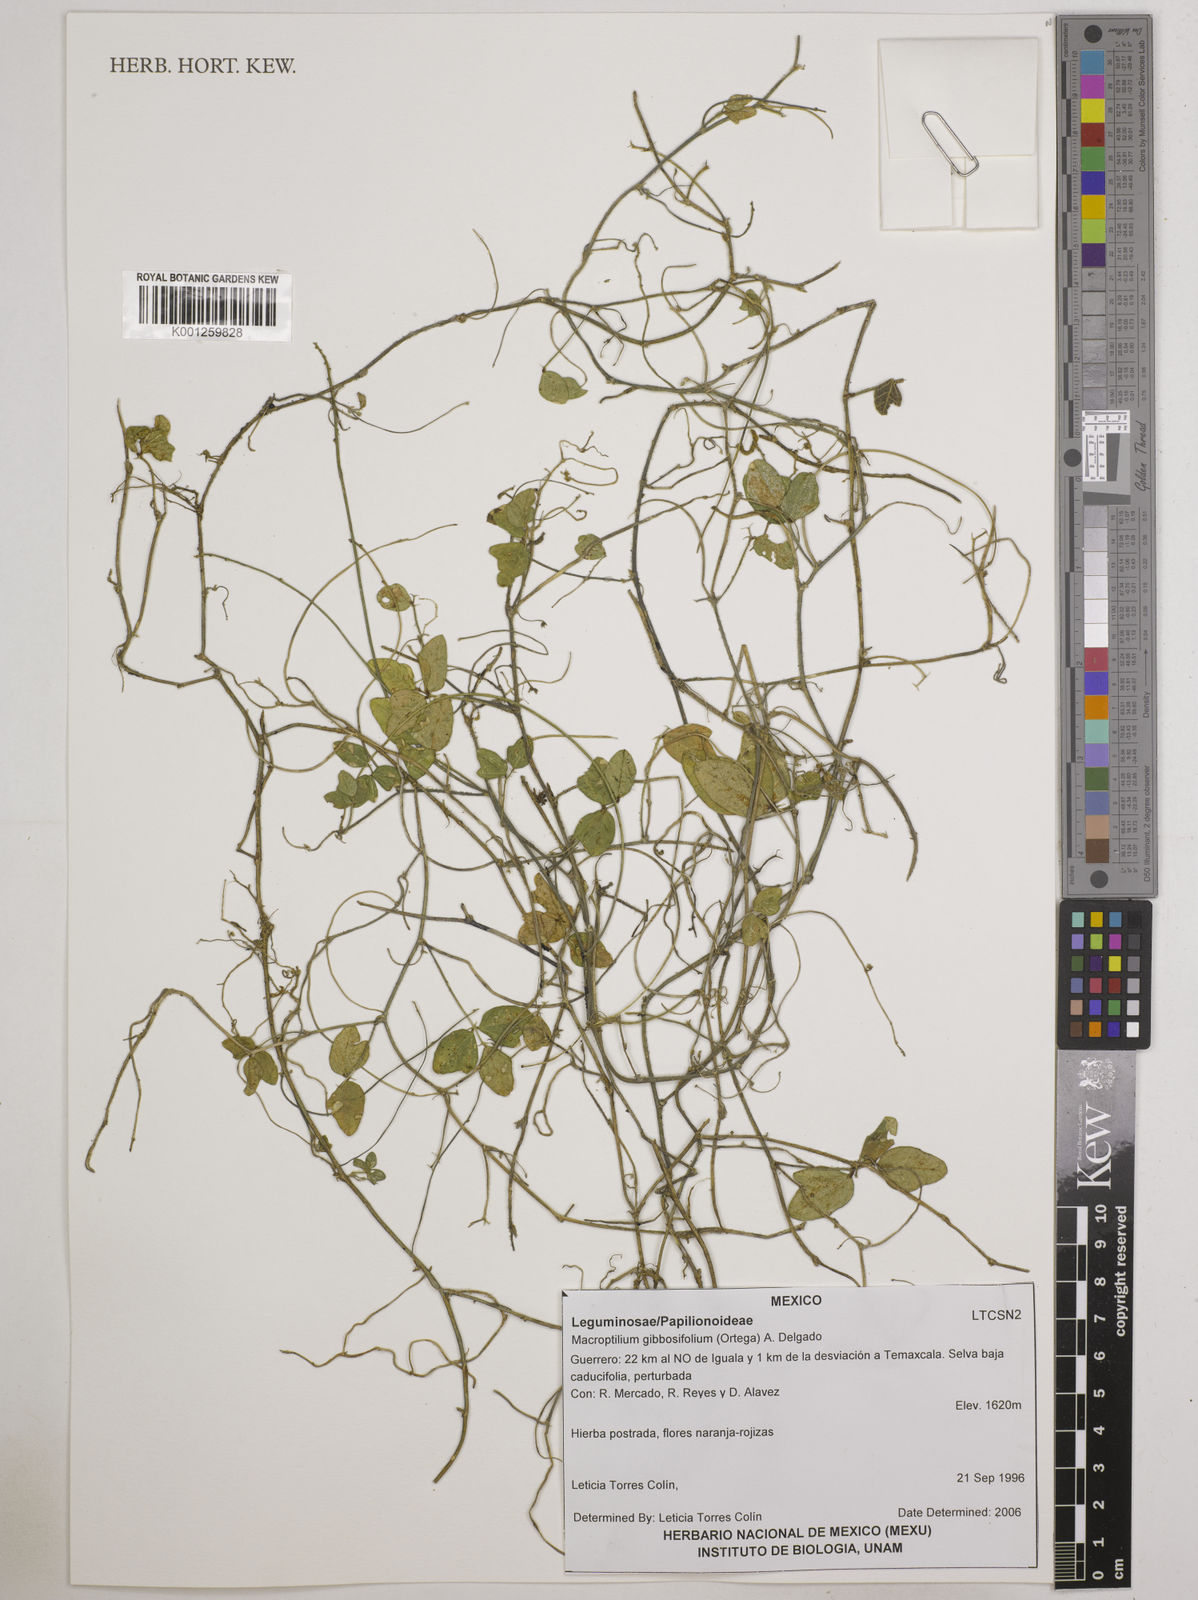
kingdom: Plantae
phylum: Tracheophyta
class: Magnoliopsida
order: Fabales
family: Fabaceae
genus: Macroptilium
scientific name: Macroptilium gibbosifolium
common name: Variableleaf bushbean
